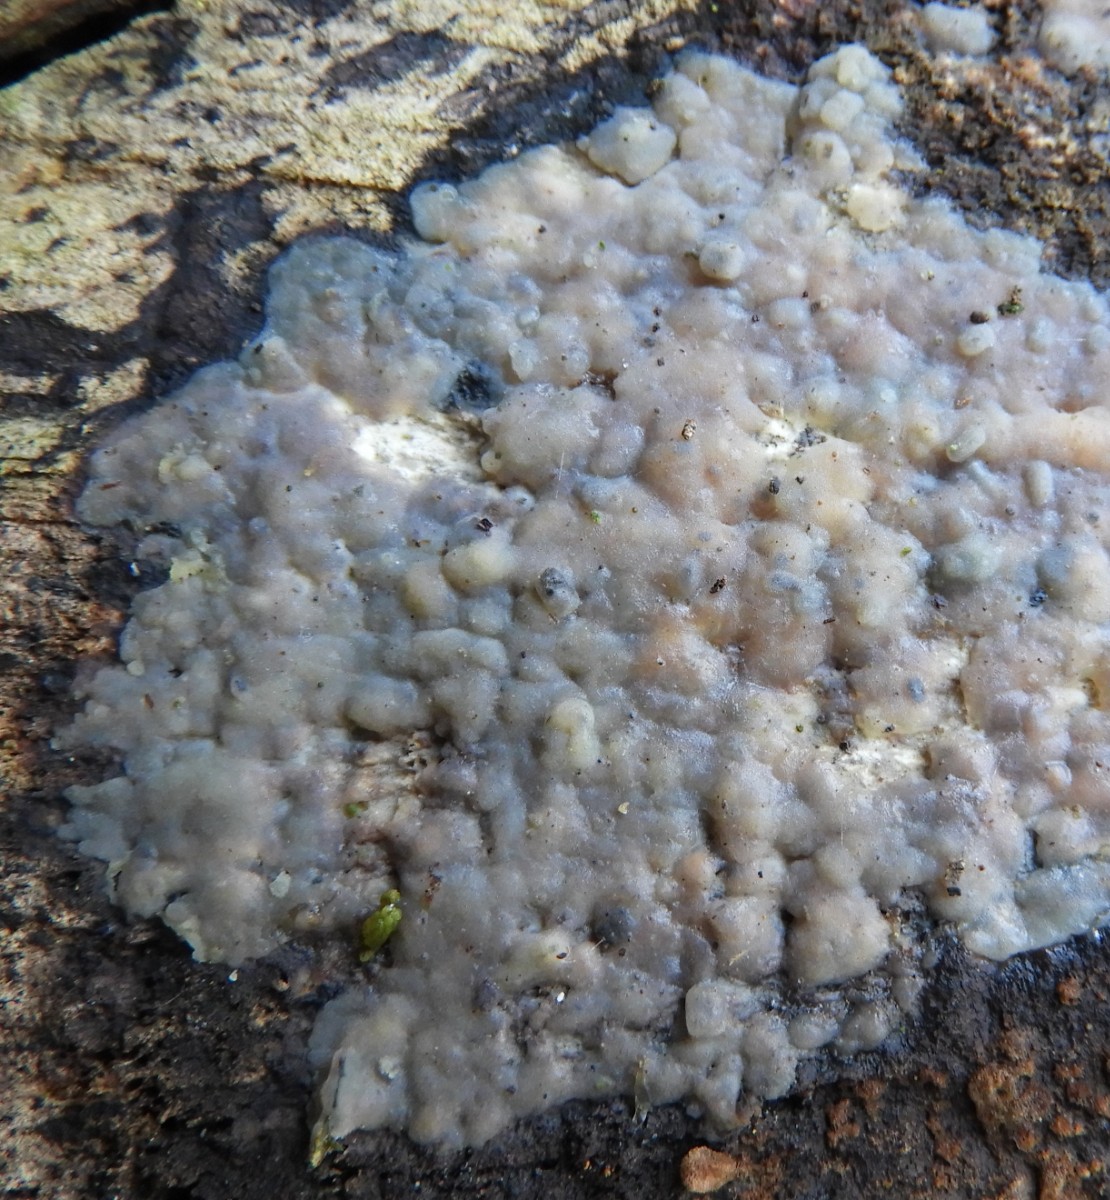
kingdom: Fungi
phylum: Basidiomycota
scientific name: Basidiomycota
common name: basidiesvampe
